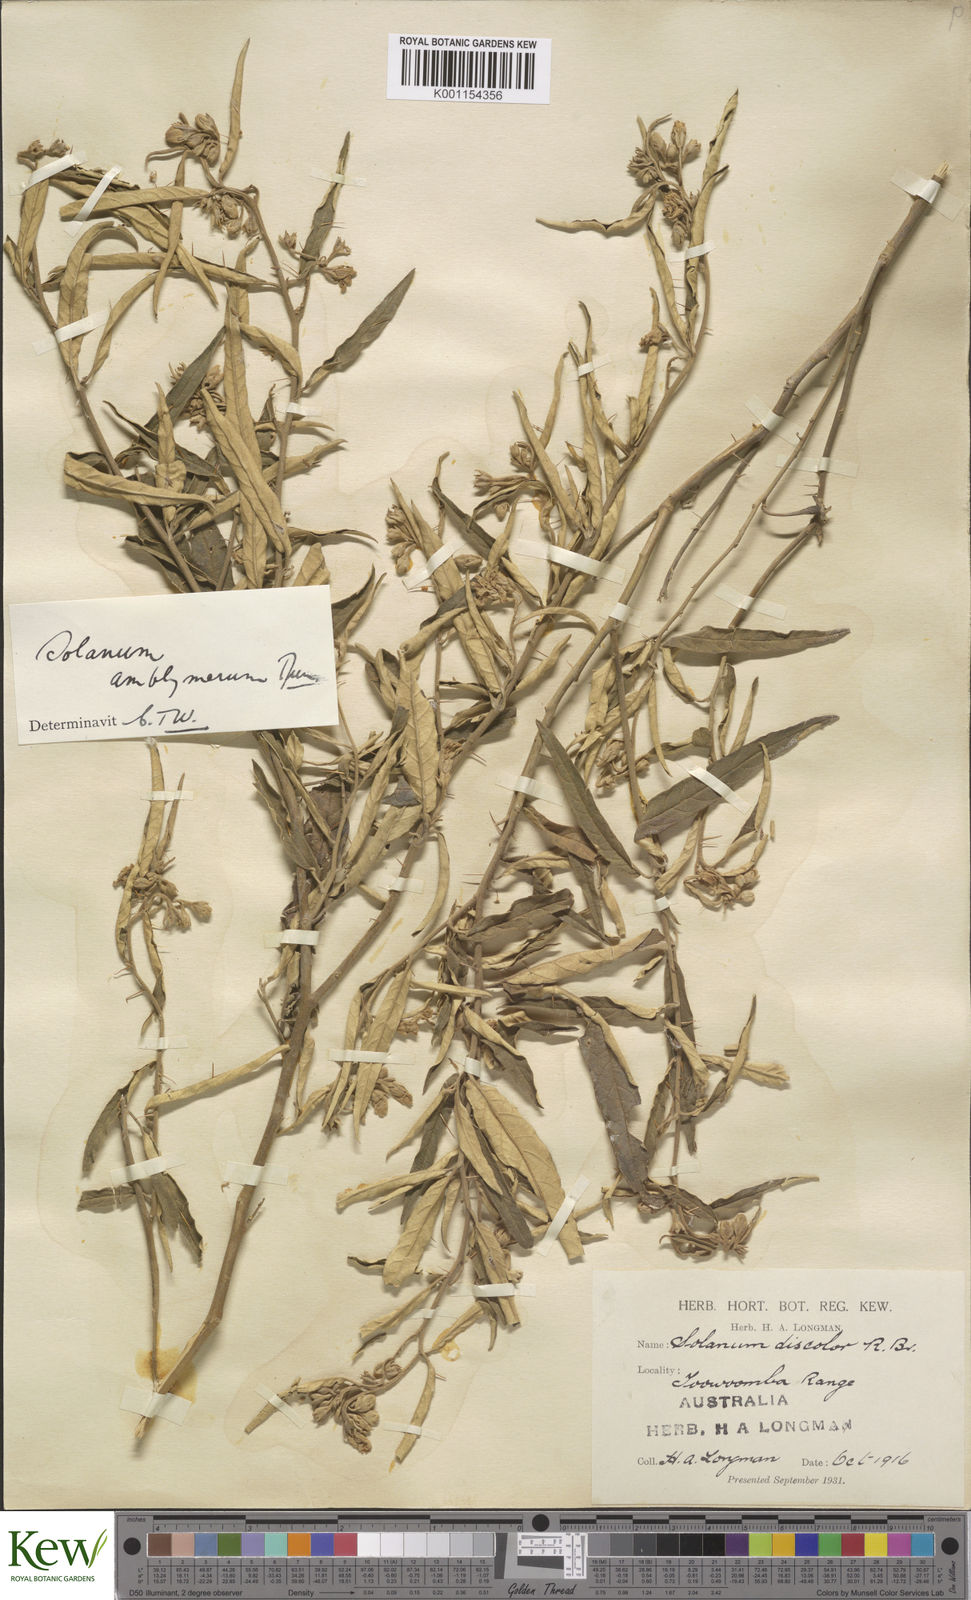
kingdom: Plantae
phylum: Tracheophyta
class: Magnoliopsida
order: Solanales
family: Solanaceae
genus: Solanum
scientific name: Solanum elegans
